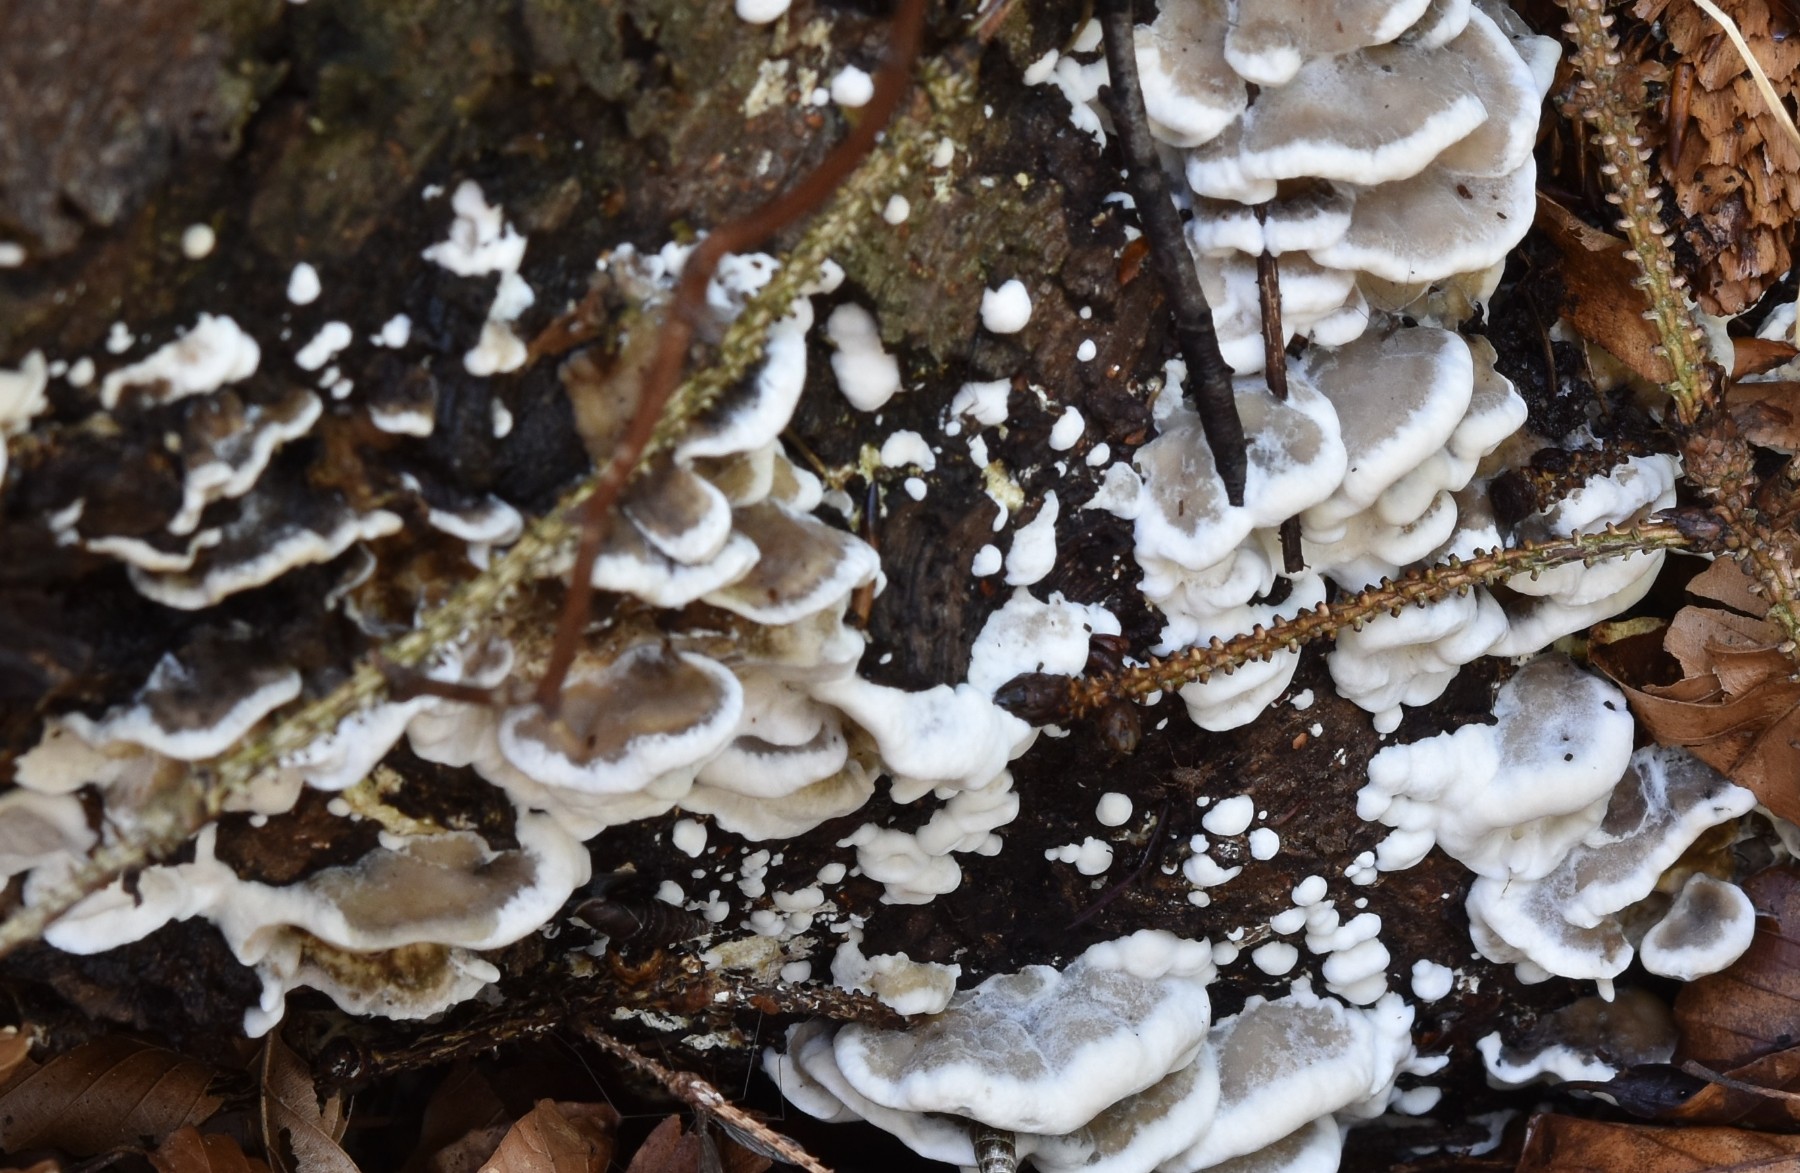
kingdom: Fungi
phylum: Basidiomycota
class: Agaricomycetes
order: Polyporales
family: Phanerochaetaceae
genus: Bjerkandera
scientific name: Bjerkandera adusta
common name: sveden sodporesvamp
